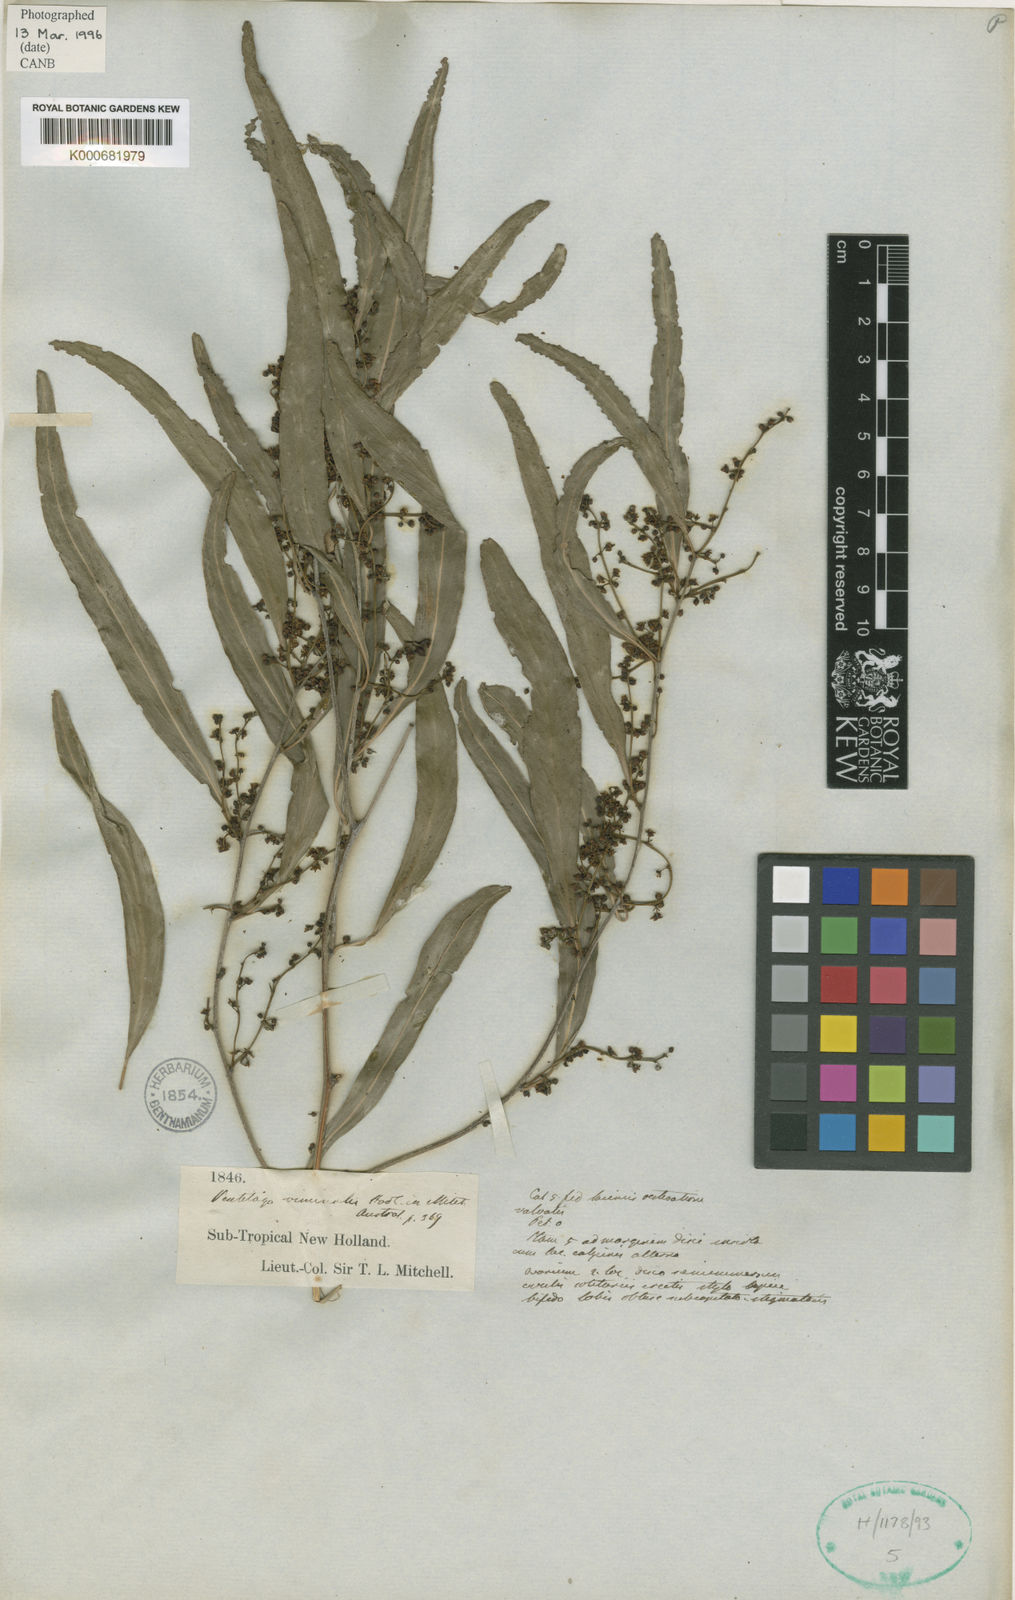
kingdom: Plantae
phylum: Tracheophyta
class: Magnoliopsida
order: Rosales
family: Rhamnaceae
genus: Ventilago
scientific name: Ventilago viminalis
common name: Medicine-bark
